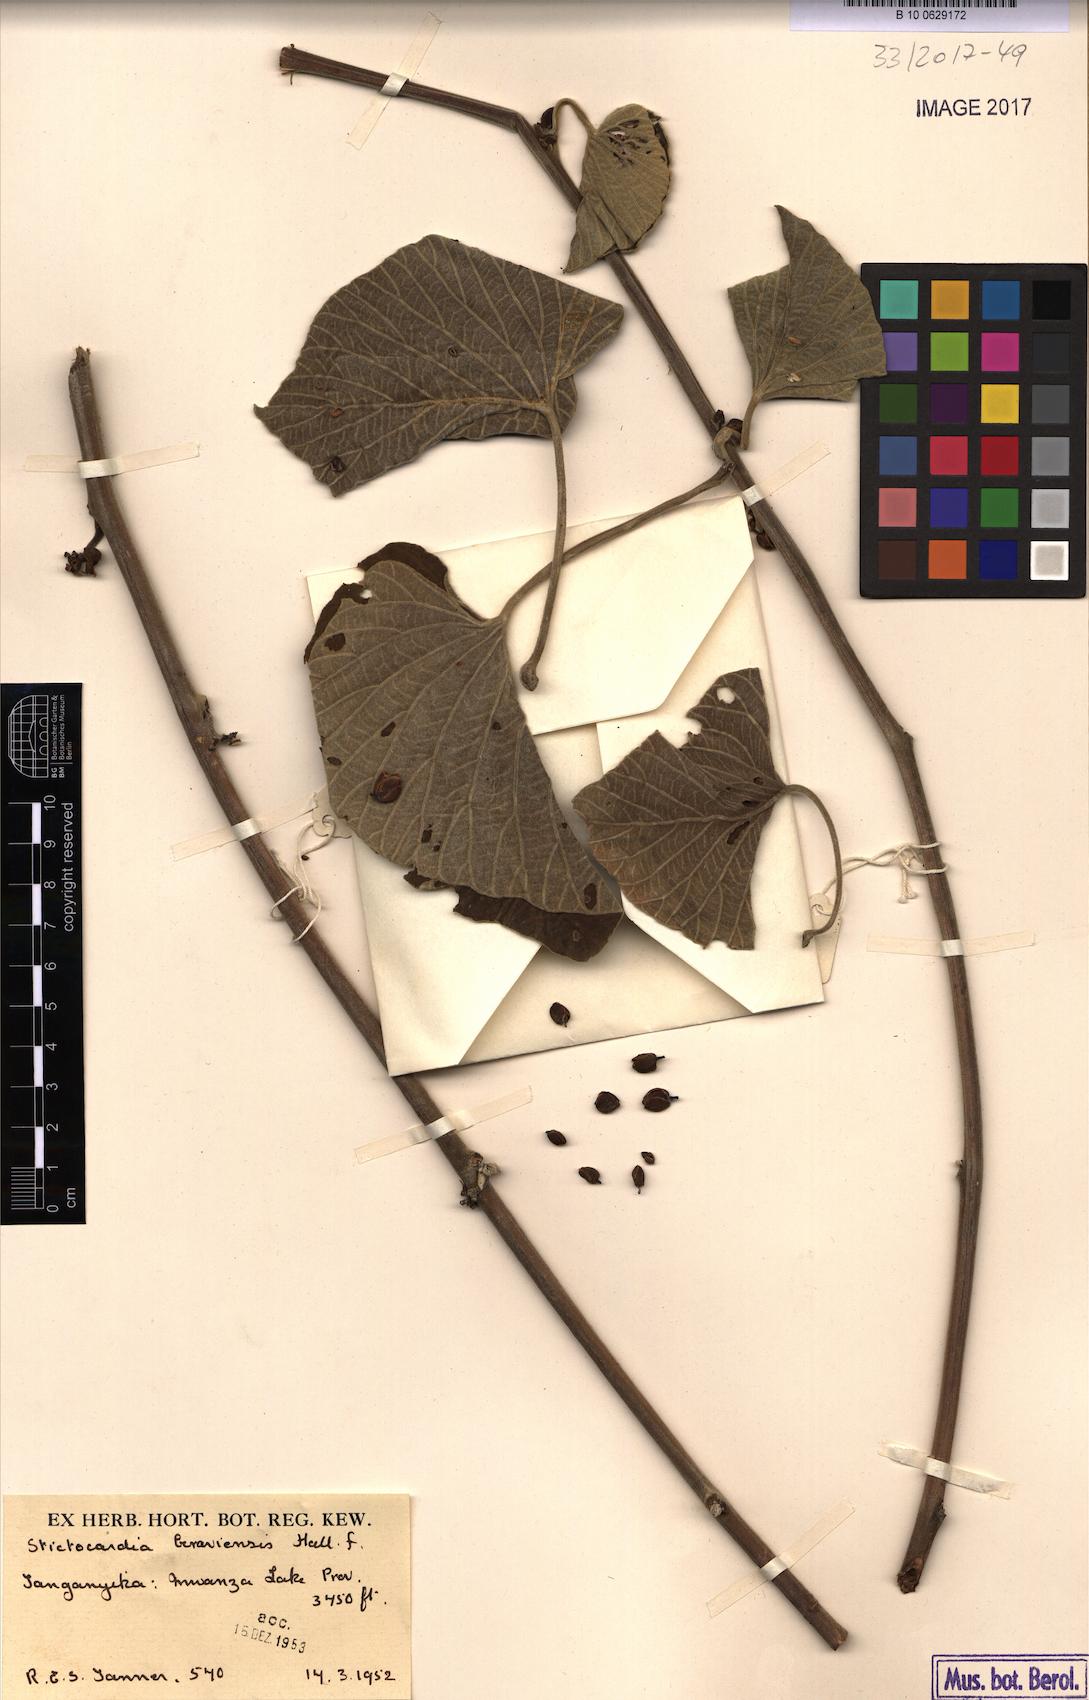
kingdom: Plantae
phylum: Tracheophyta
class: Magnoliopsida
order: Solanales
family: Convolvulaceae
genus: Stictocardia
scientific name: Stictocardia beraviensis
